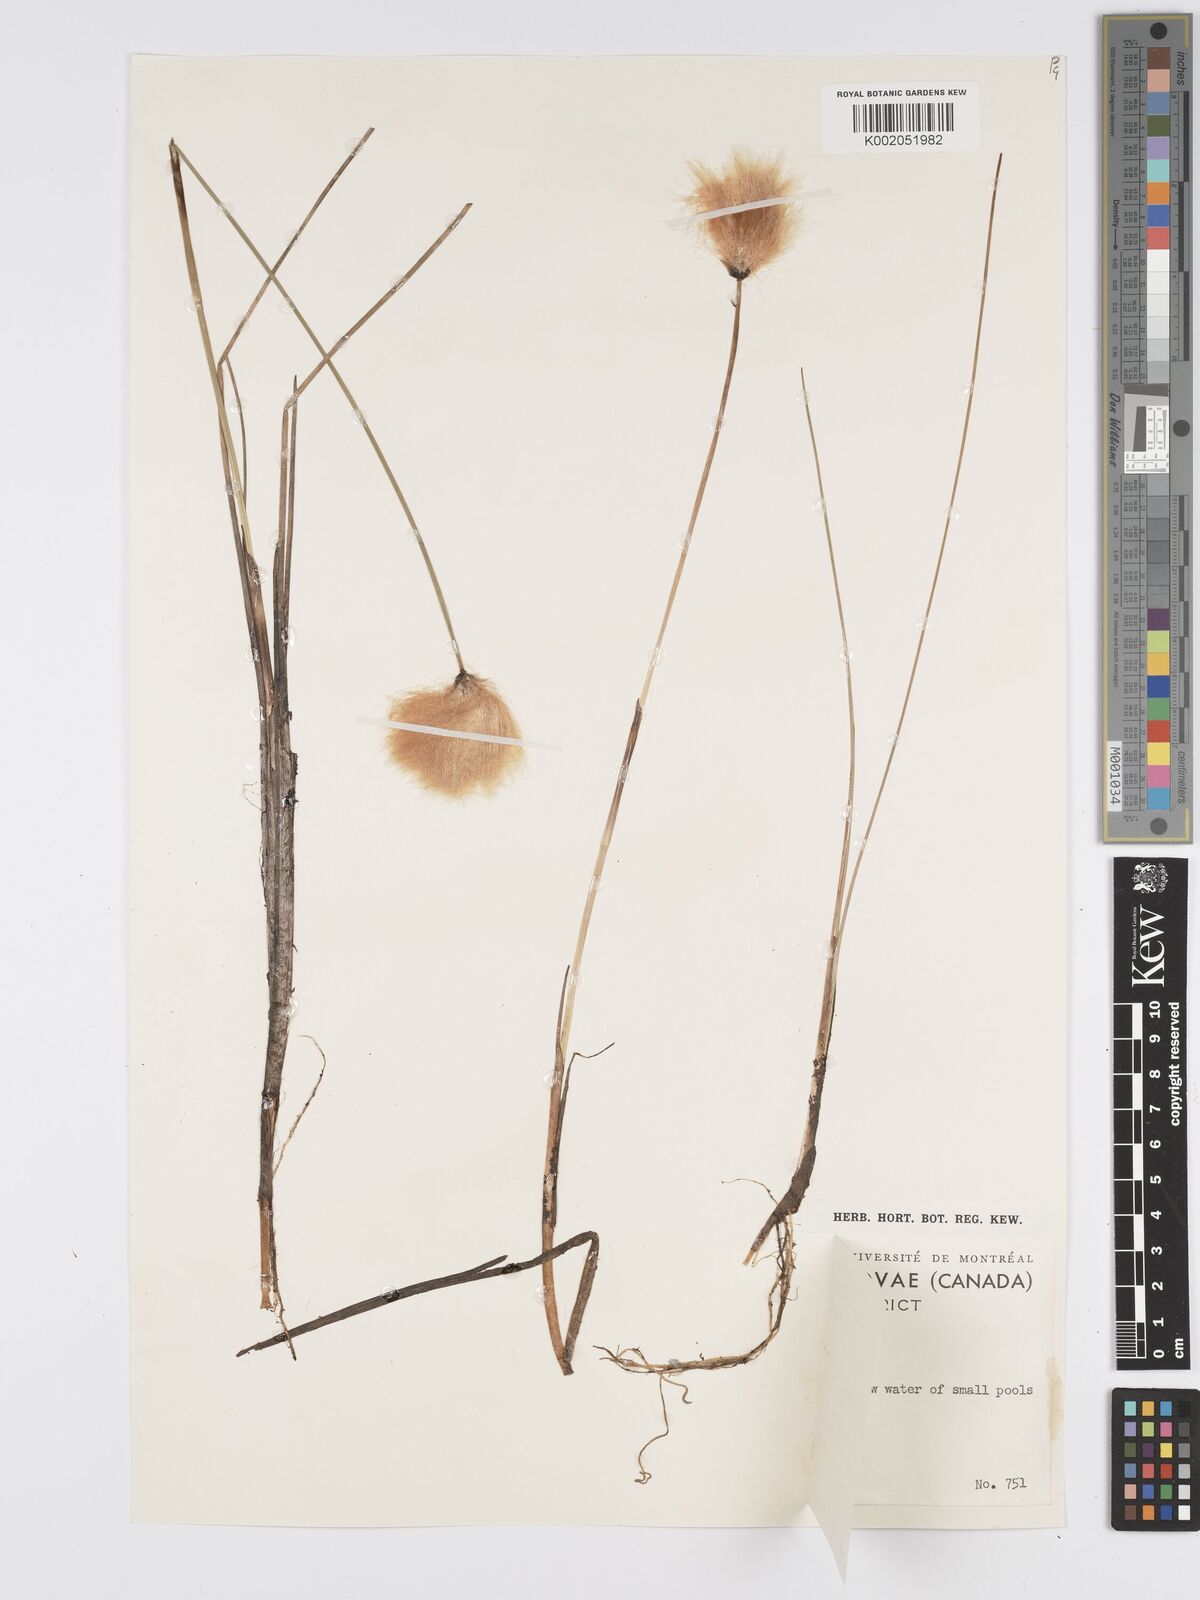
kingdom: Plantae
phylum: Tracheophyta
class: Liliopsida
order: Poales
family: Cyperaceae
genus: Eriophorum
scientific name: Eriophorum callitrix
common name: Arctic cottongrass
